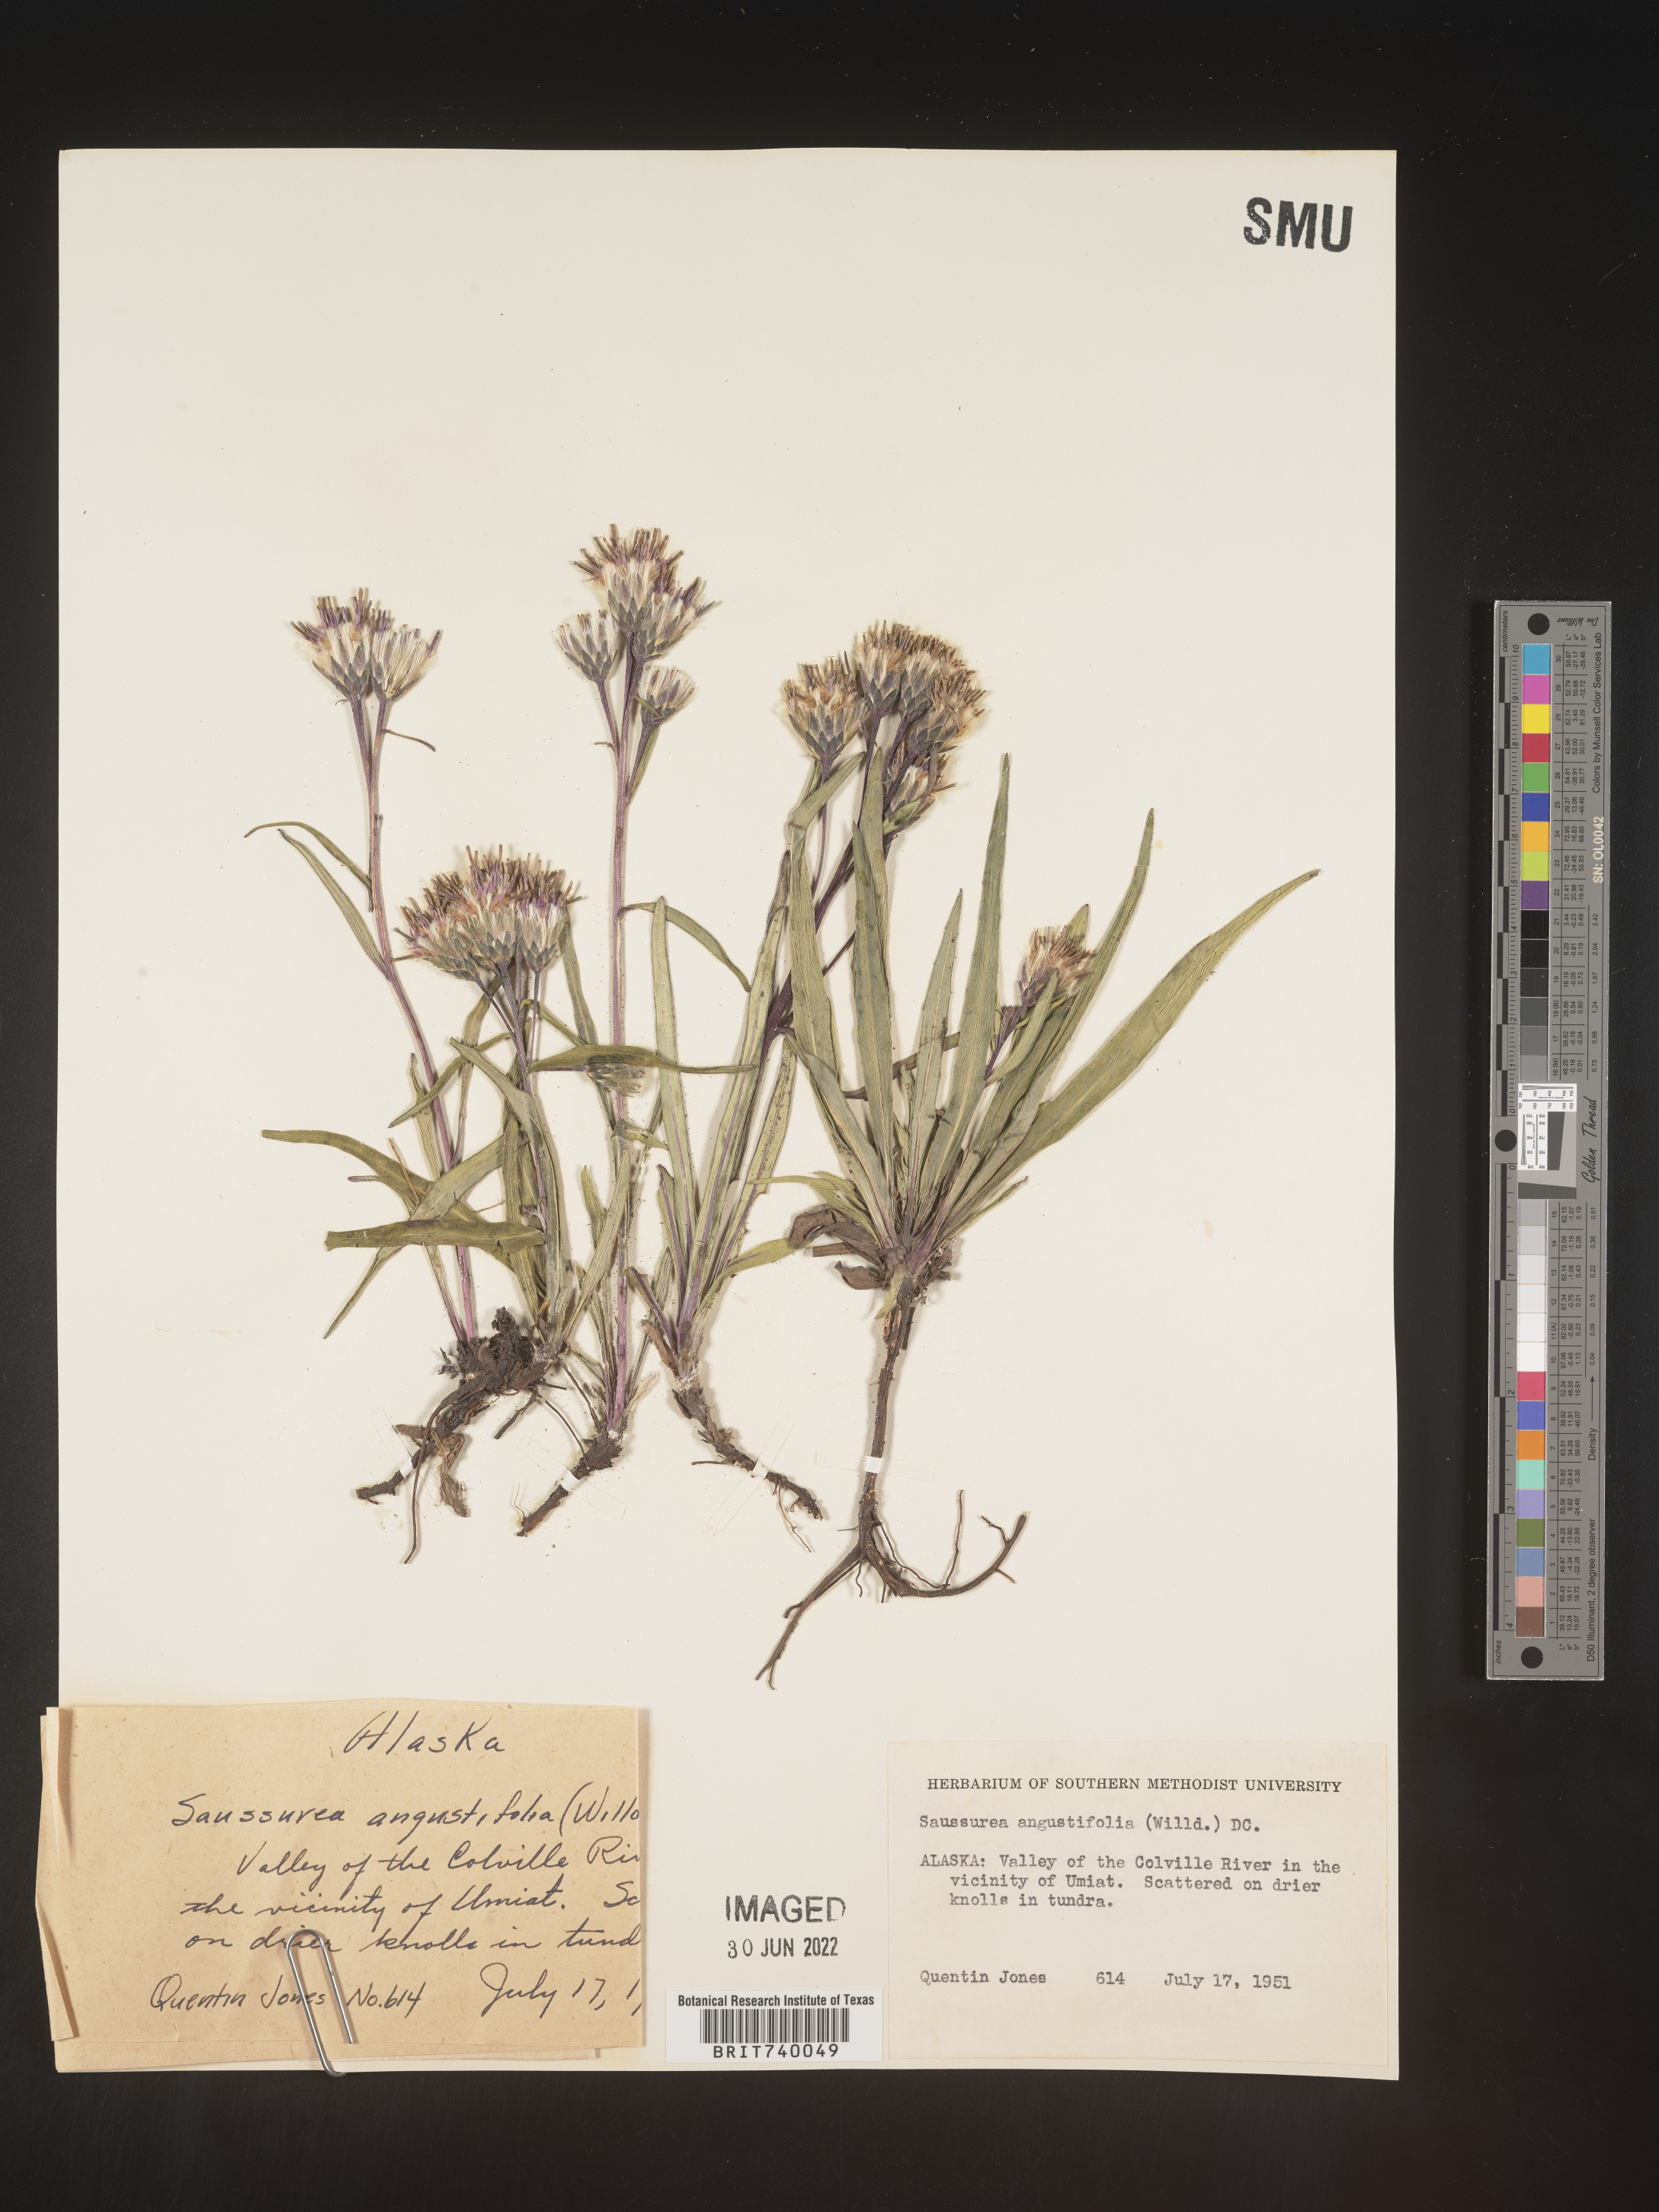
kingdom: Plantae
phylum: Tracheophyta
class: Magnoliopsida
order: Asterales
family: Asteraceae
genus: Saussurea
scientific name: Saussurea
